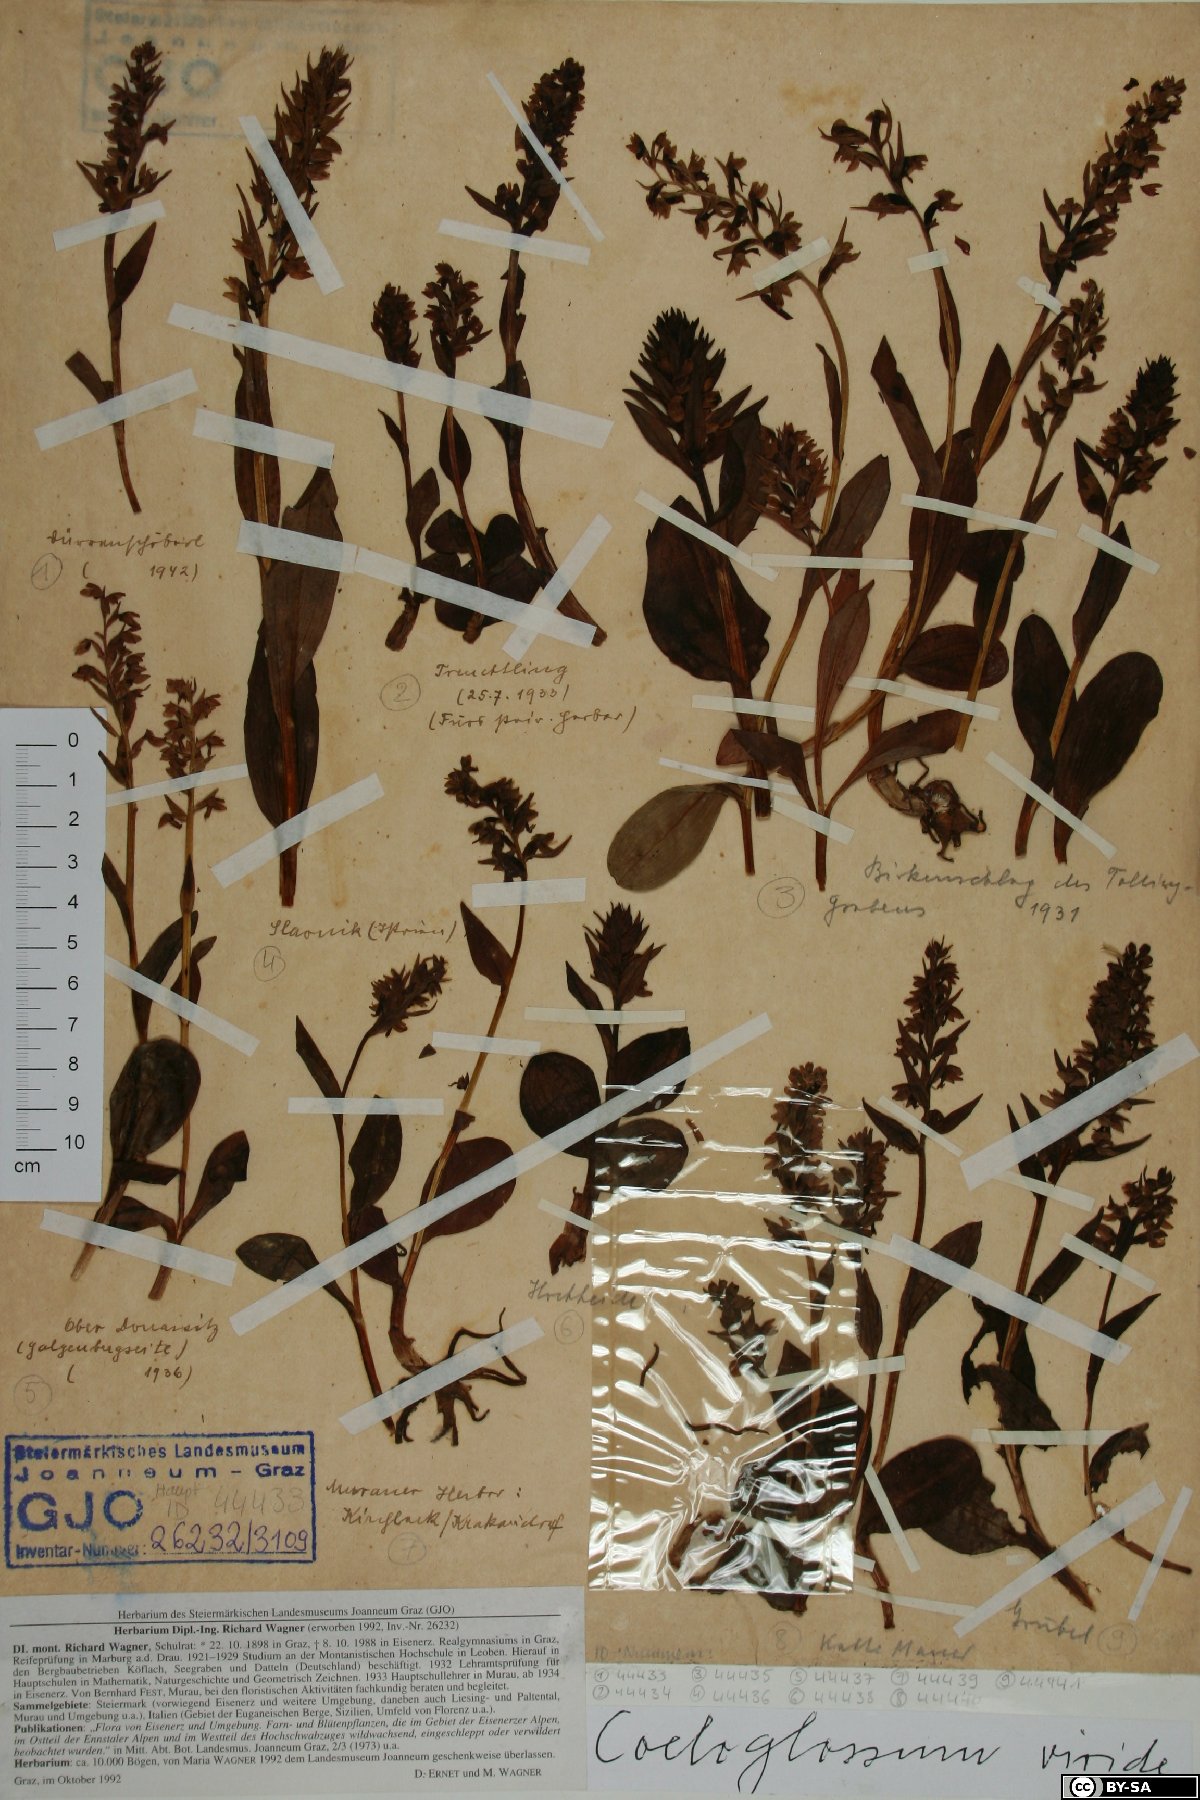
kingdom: Plantae
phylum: Tracheophyta
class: Liliopsida
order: Asparagales
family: Orchidaceae
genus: Dactylorhiza
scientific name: Dactylorhiza viridis
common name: Longbract frog orchid
